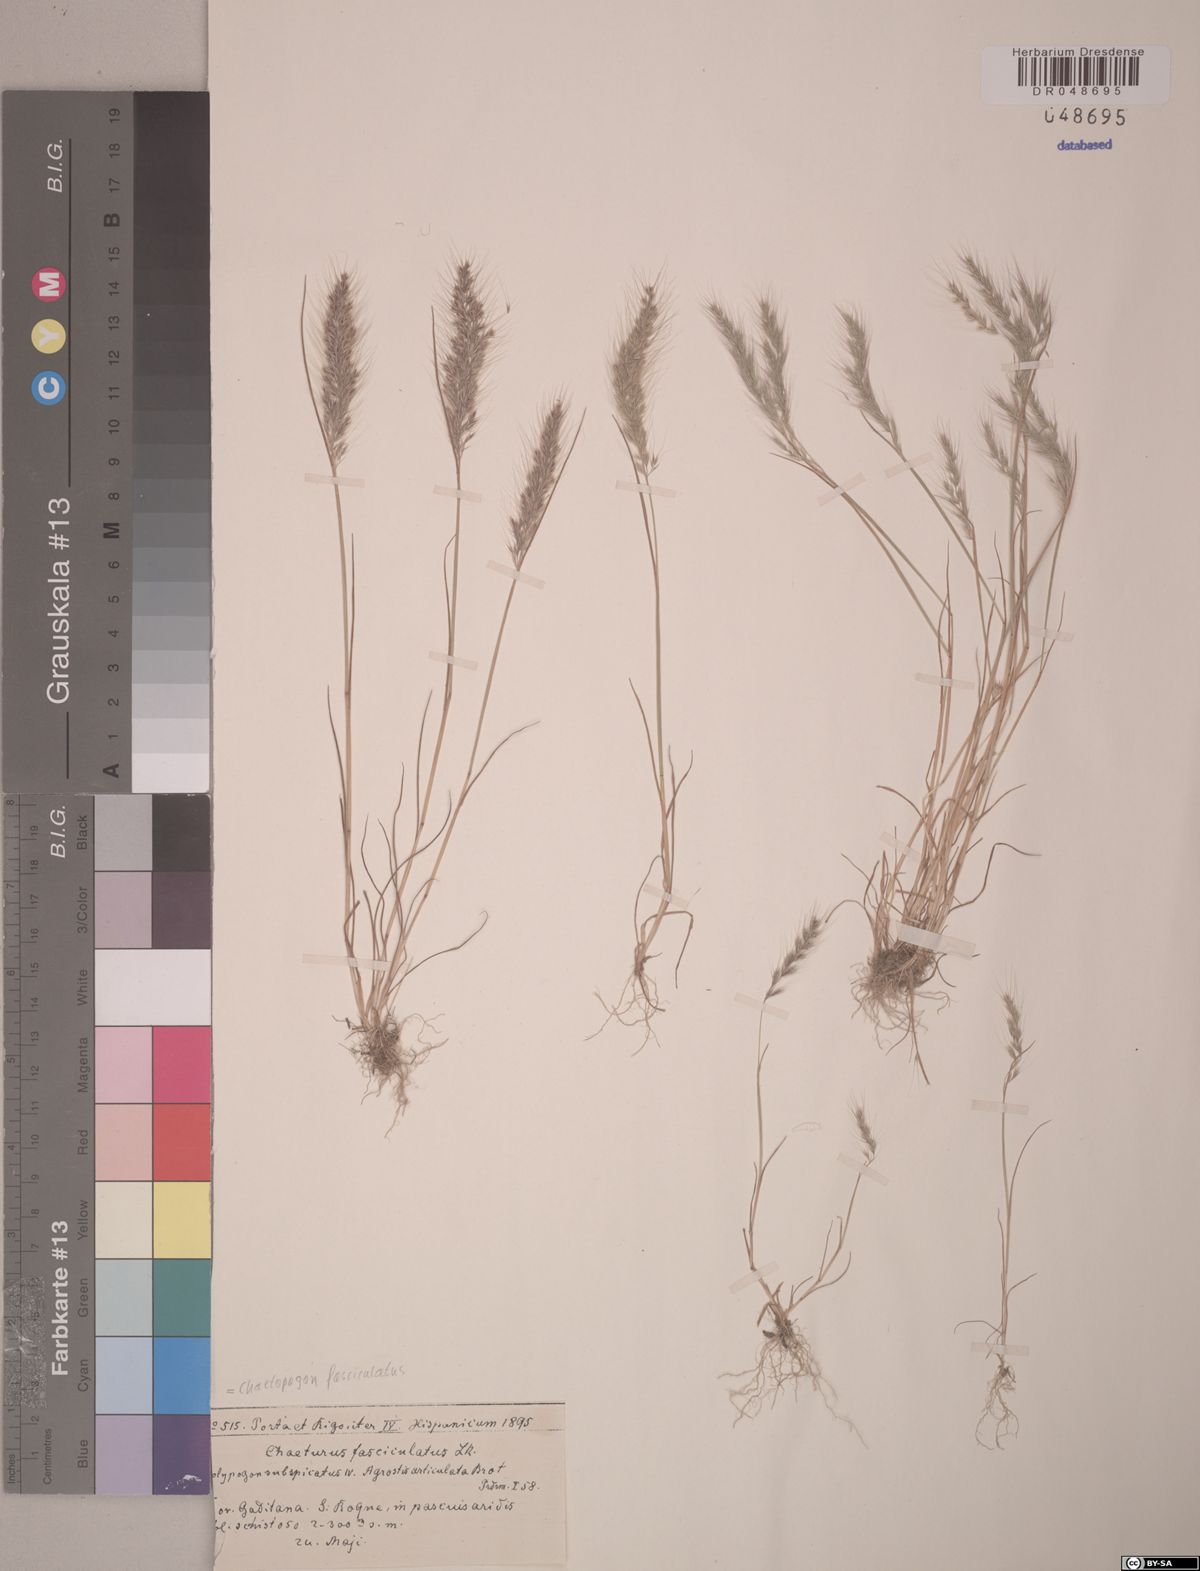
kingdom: Plantae
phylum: Tracheophyta
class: Liliopsida
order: Poales
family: Poaceae
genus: Agrostis
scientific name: Agrostis subspicata
